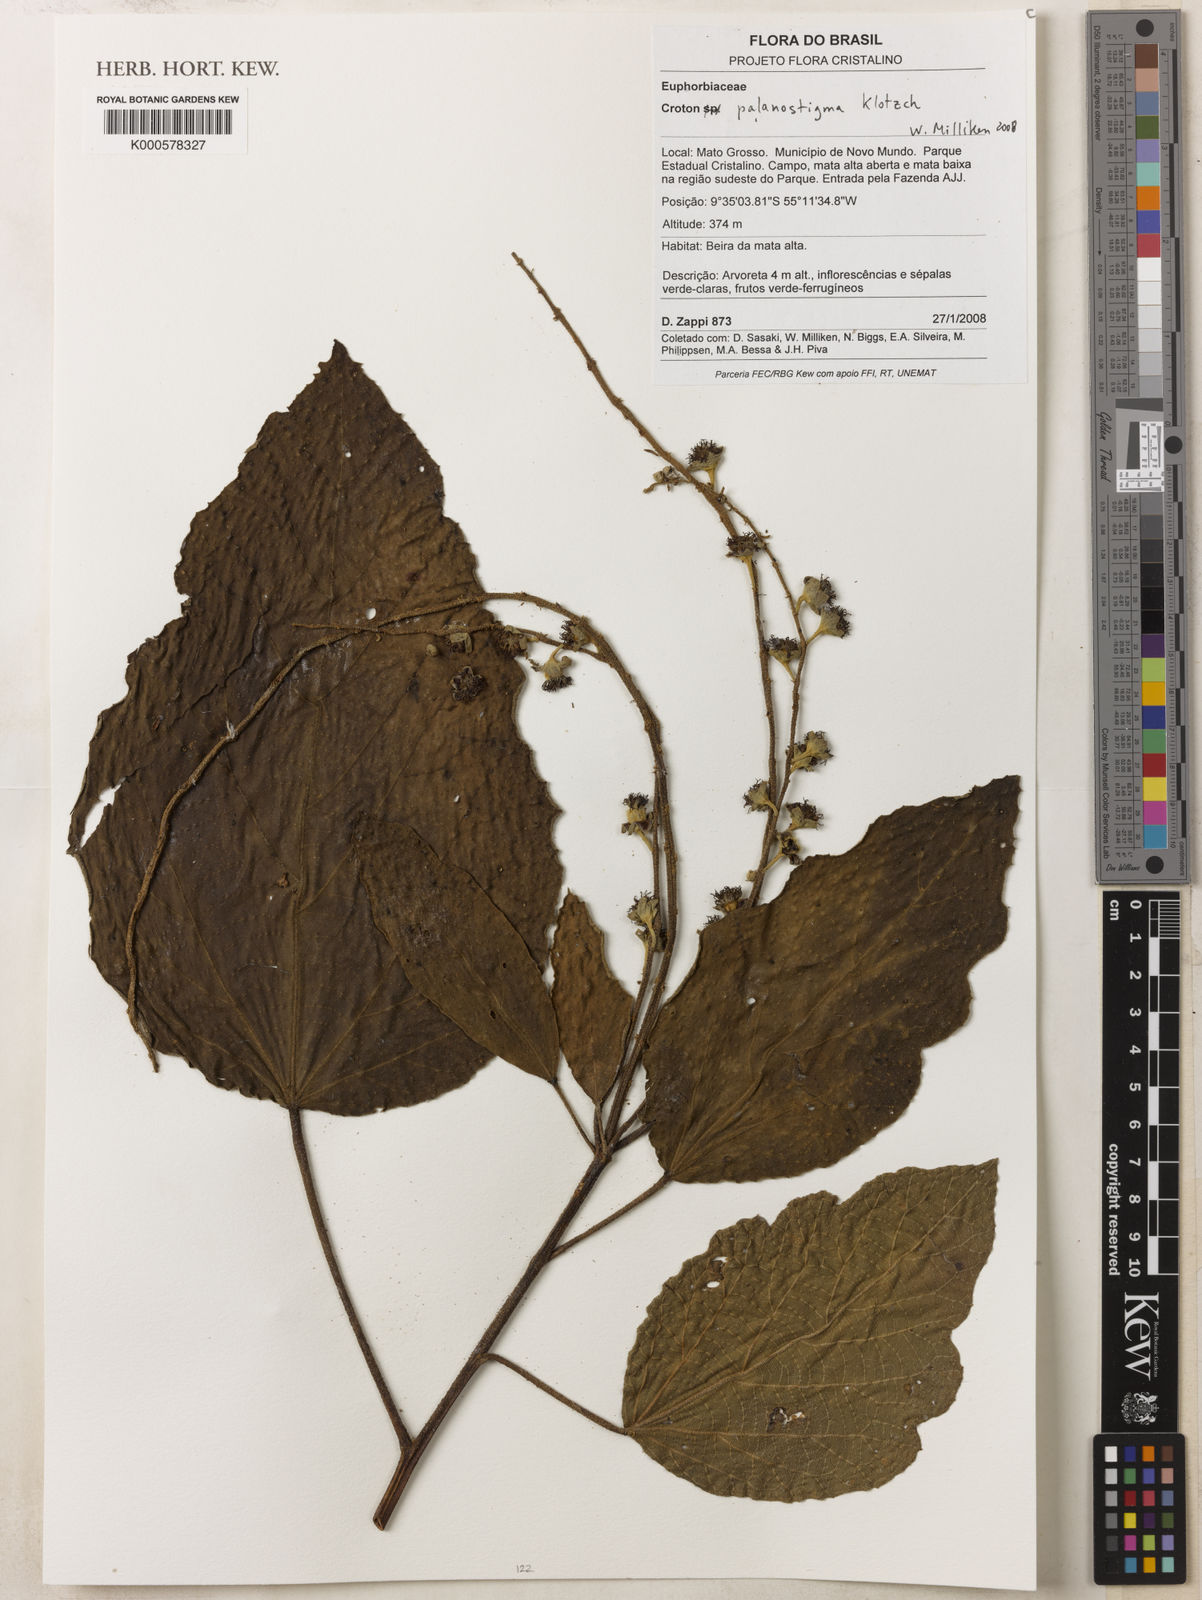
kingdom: Plantae
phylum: Tracheophyta
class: Magnoliopsida
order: Malpighiales
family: Euphorbiaceae
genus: Croton
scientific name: Croton palanostigma
